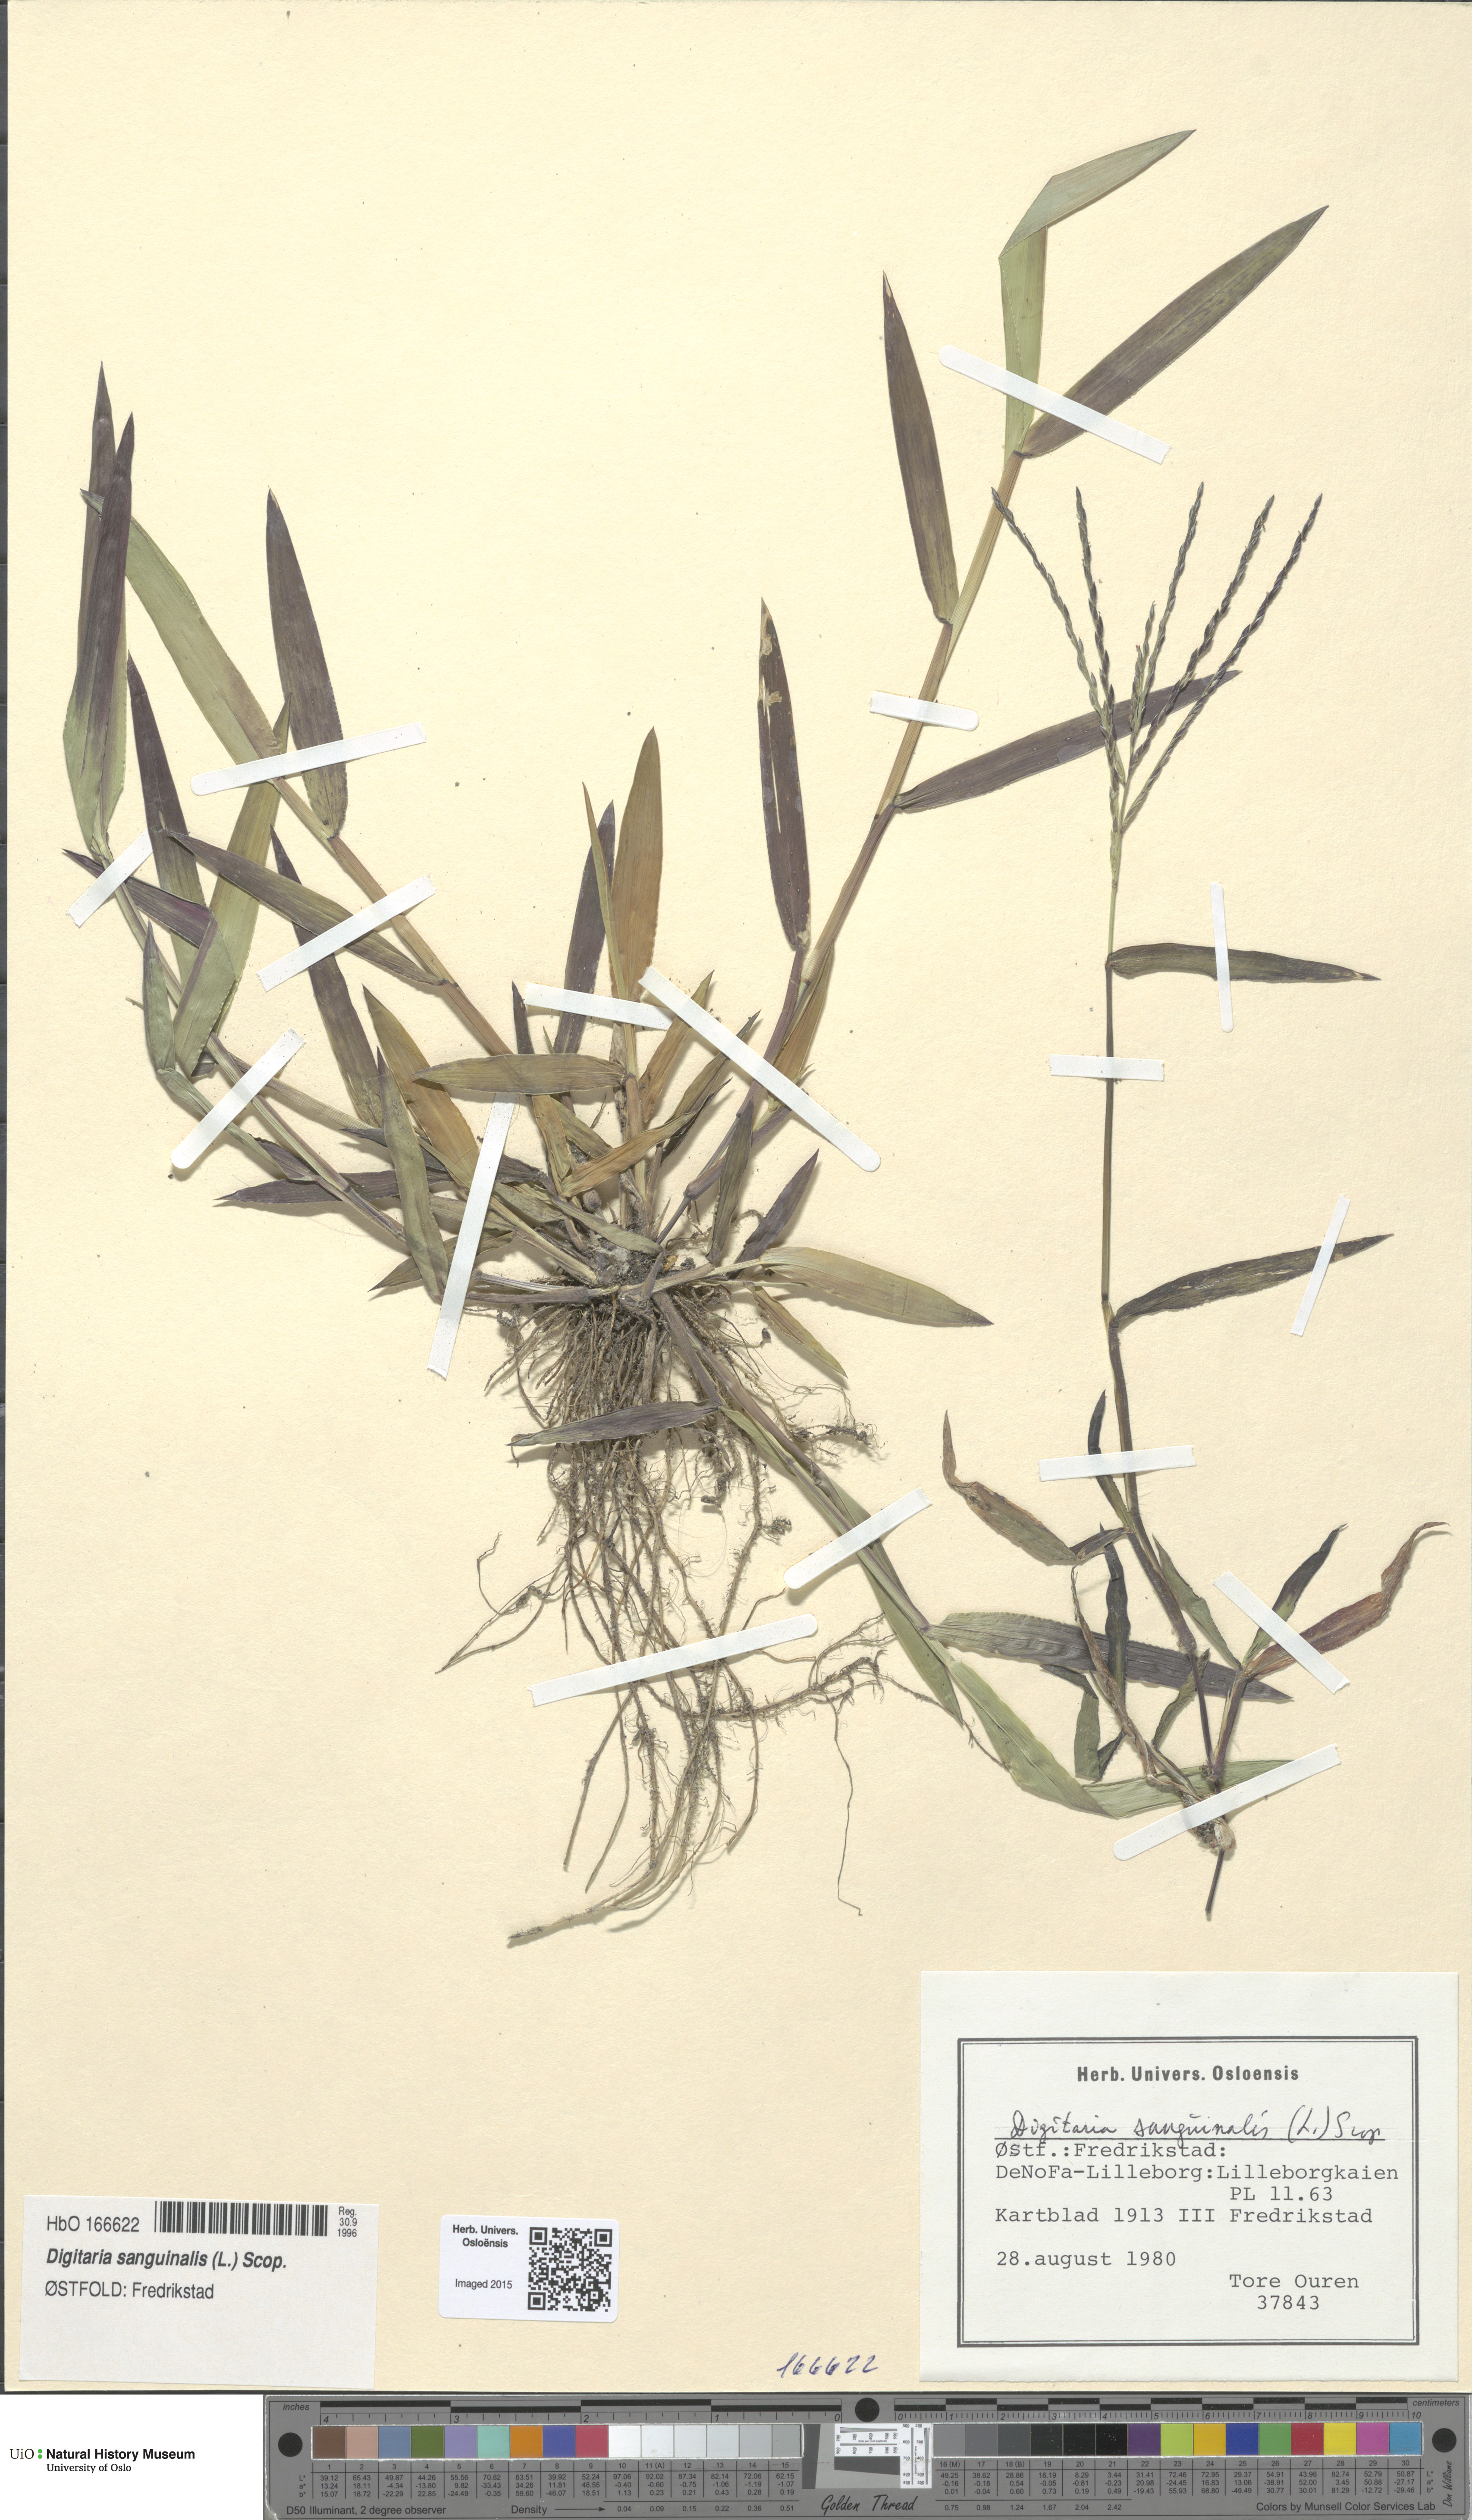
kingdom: Plantae
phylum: Tracheophyta
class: Liliopsida
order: Poales
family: Poaceae
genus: Digitaria
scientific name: Digitaria sanguinalis
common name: Hairy crabgrass
